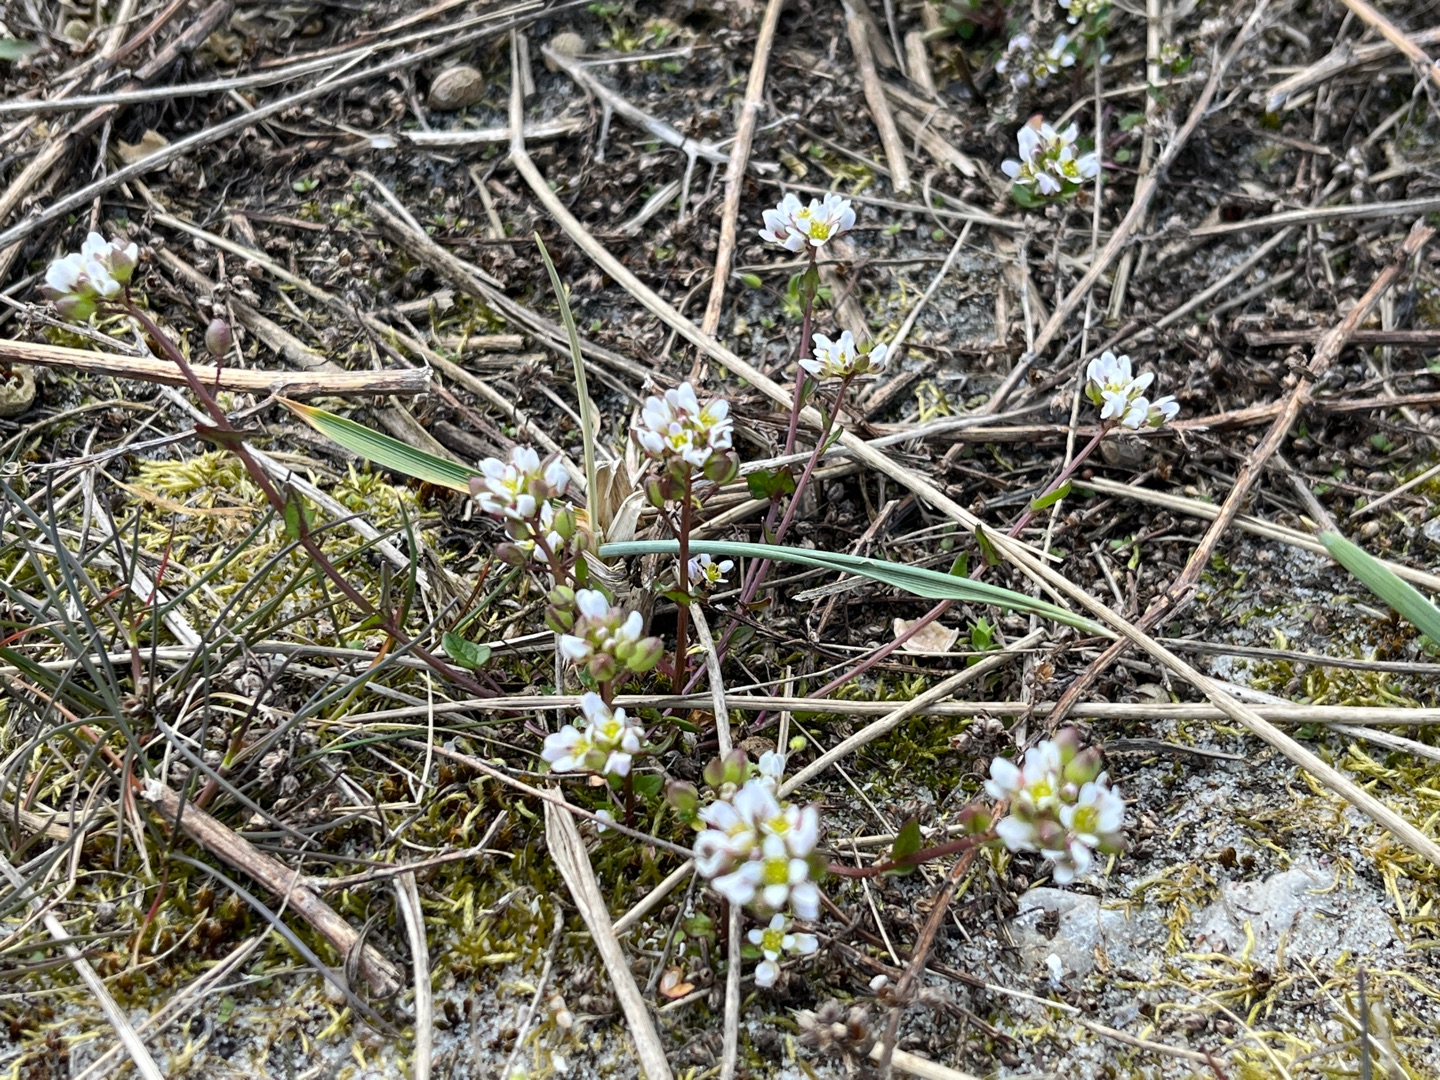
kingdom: Plantae
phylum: Tracheophyta
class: Magnoliopsida
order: Brassicales
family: Brassicaceae
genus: Cochlearia
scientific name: Cochlearia danica
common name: Dansk kokleare
